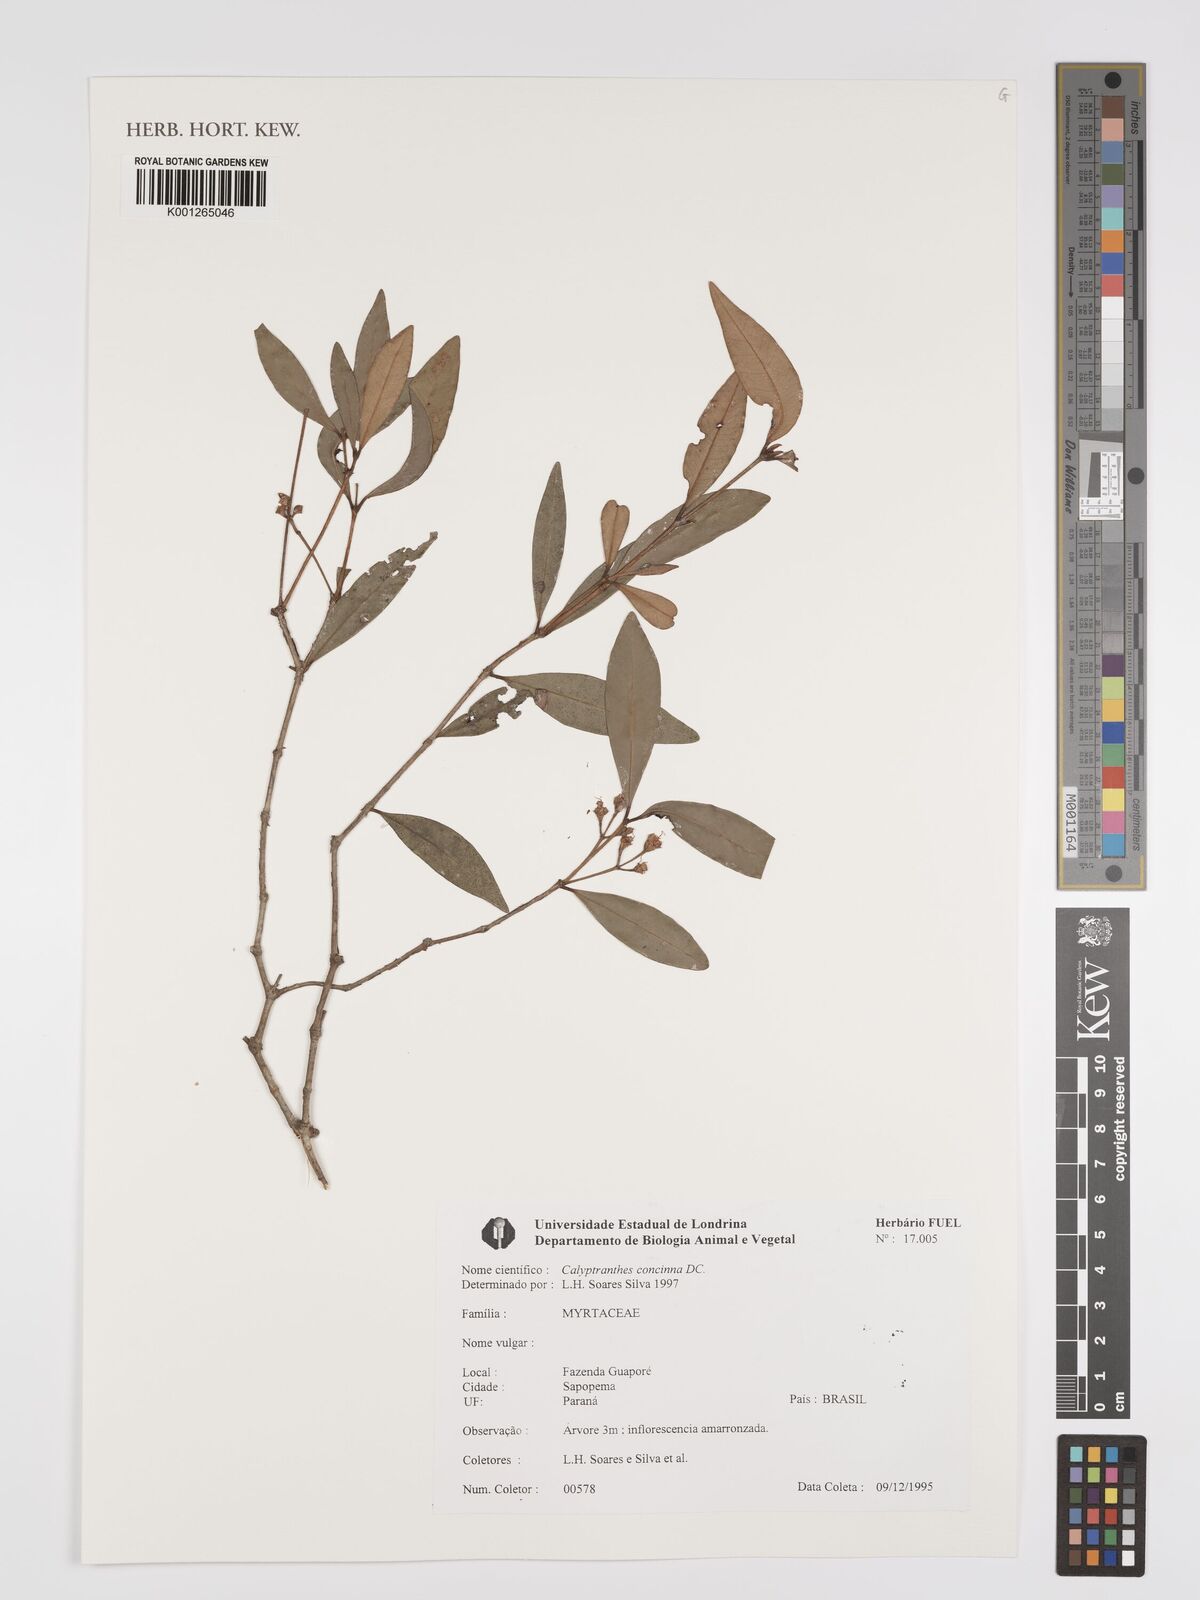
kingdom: Plantae
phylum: Tracheophyta
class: Magnoliopsida
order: Myrtales
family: Myrtaceae
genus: Myrcia
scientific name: Myrcia cruciflora
